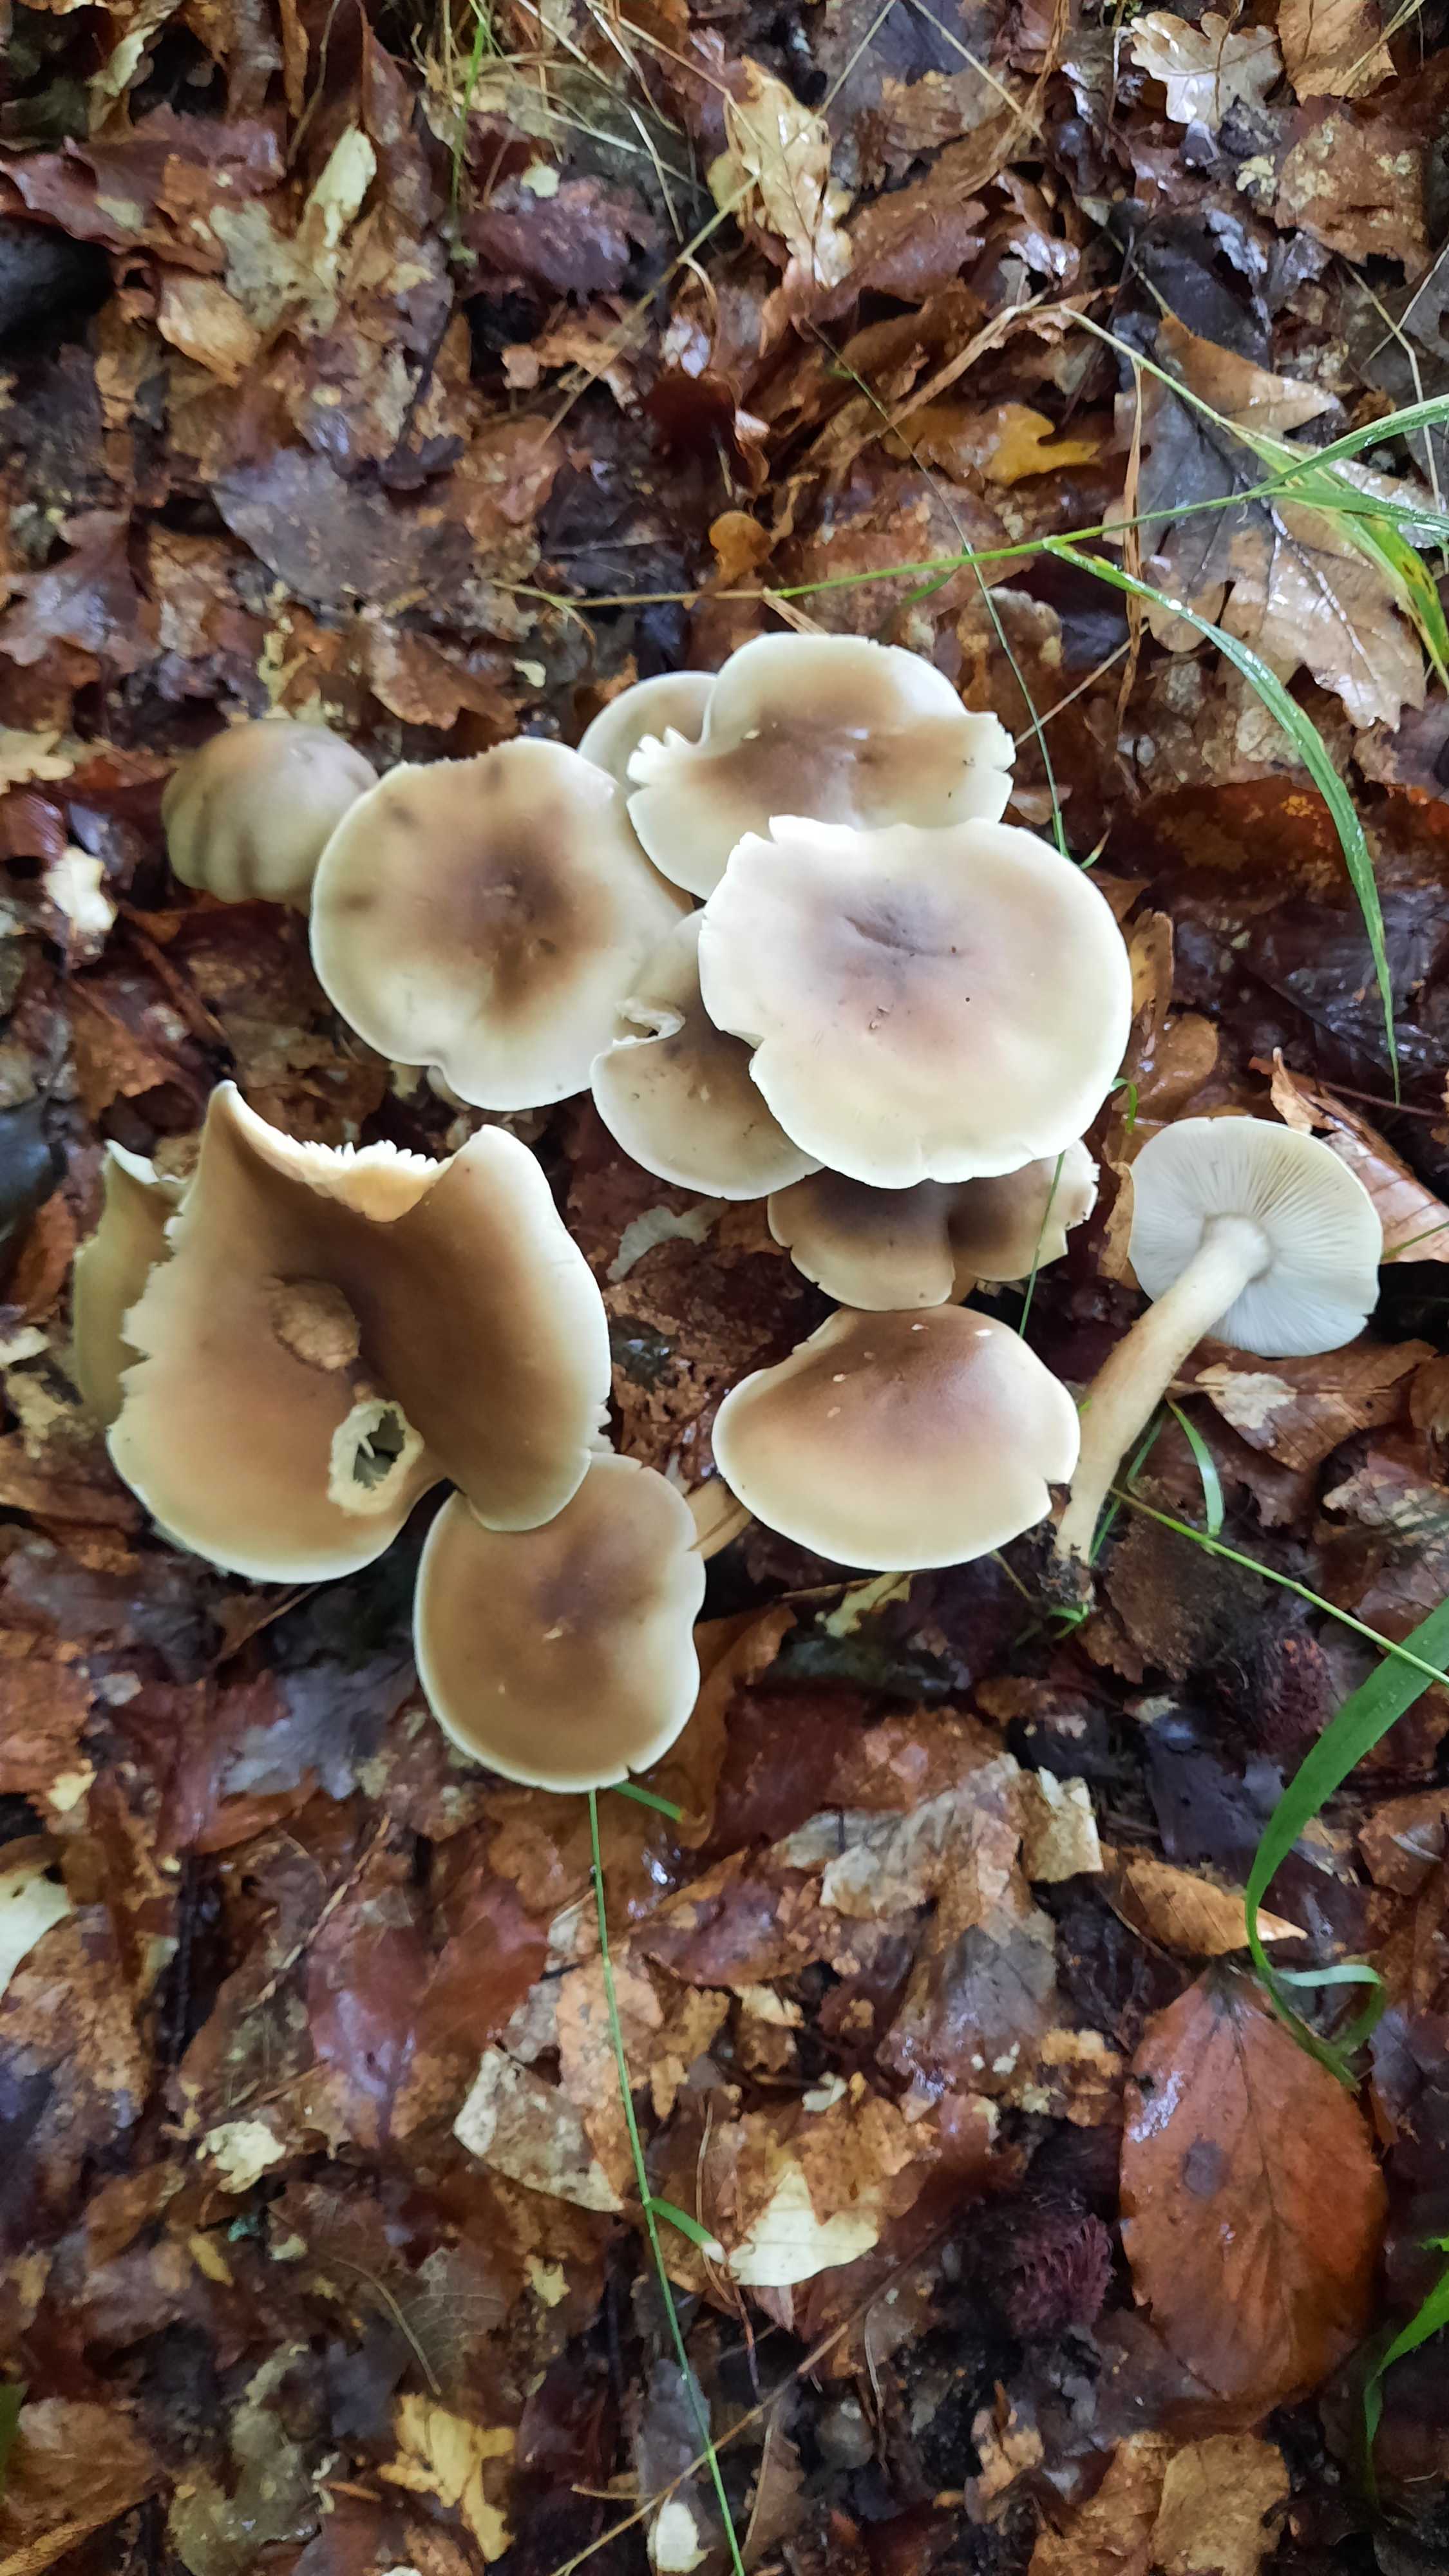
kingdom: Fungi
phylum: Basidiomycota
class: Agaricomycetes
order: Agaricales
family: Omphalotaceae
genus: Rhodocollybia
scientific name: Rhodocollybia asema
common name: horngrå fladhat
